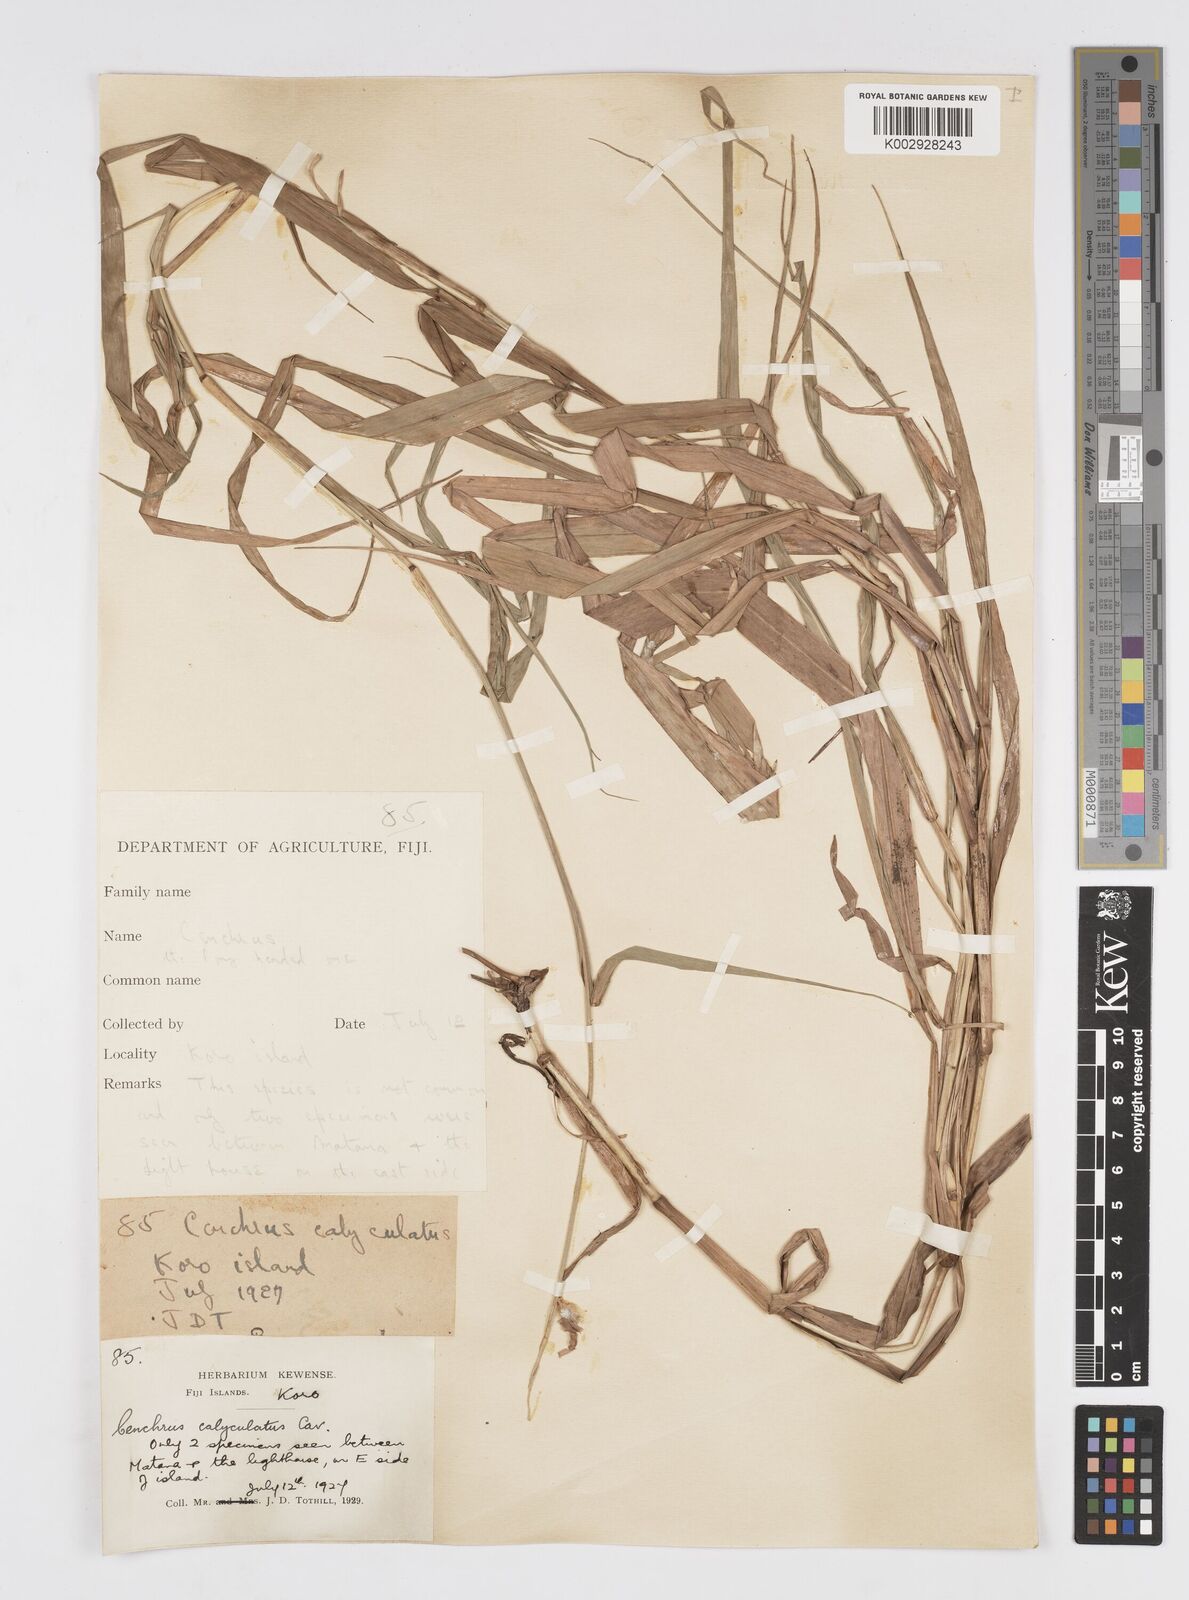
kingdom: Plantae
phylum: Tracheophyta
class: Liliopsida
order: Poales
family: Poaceae
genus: Cenchrus
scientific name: Cenchrus caliculatus
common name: Large bur grass
